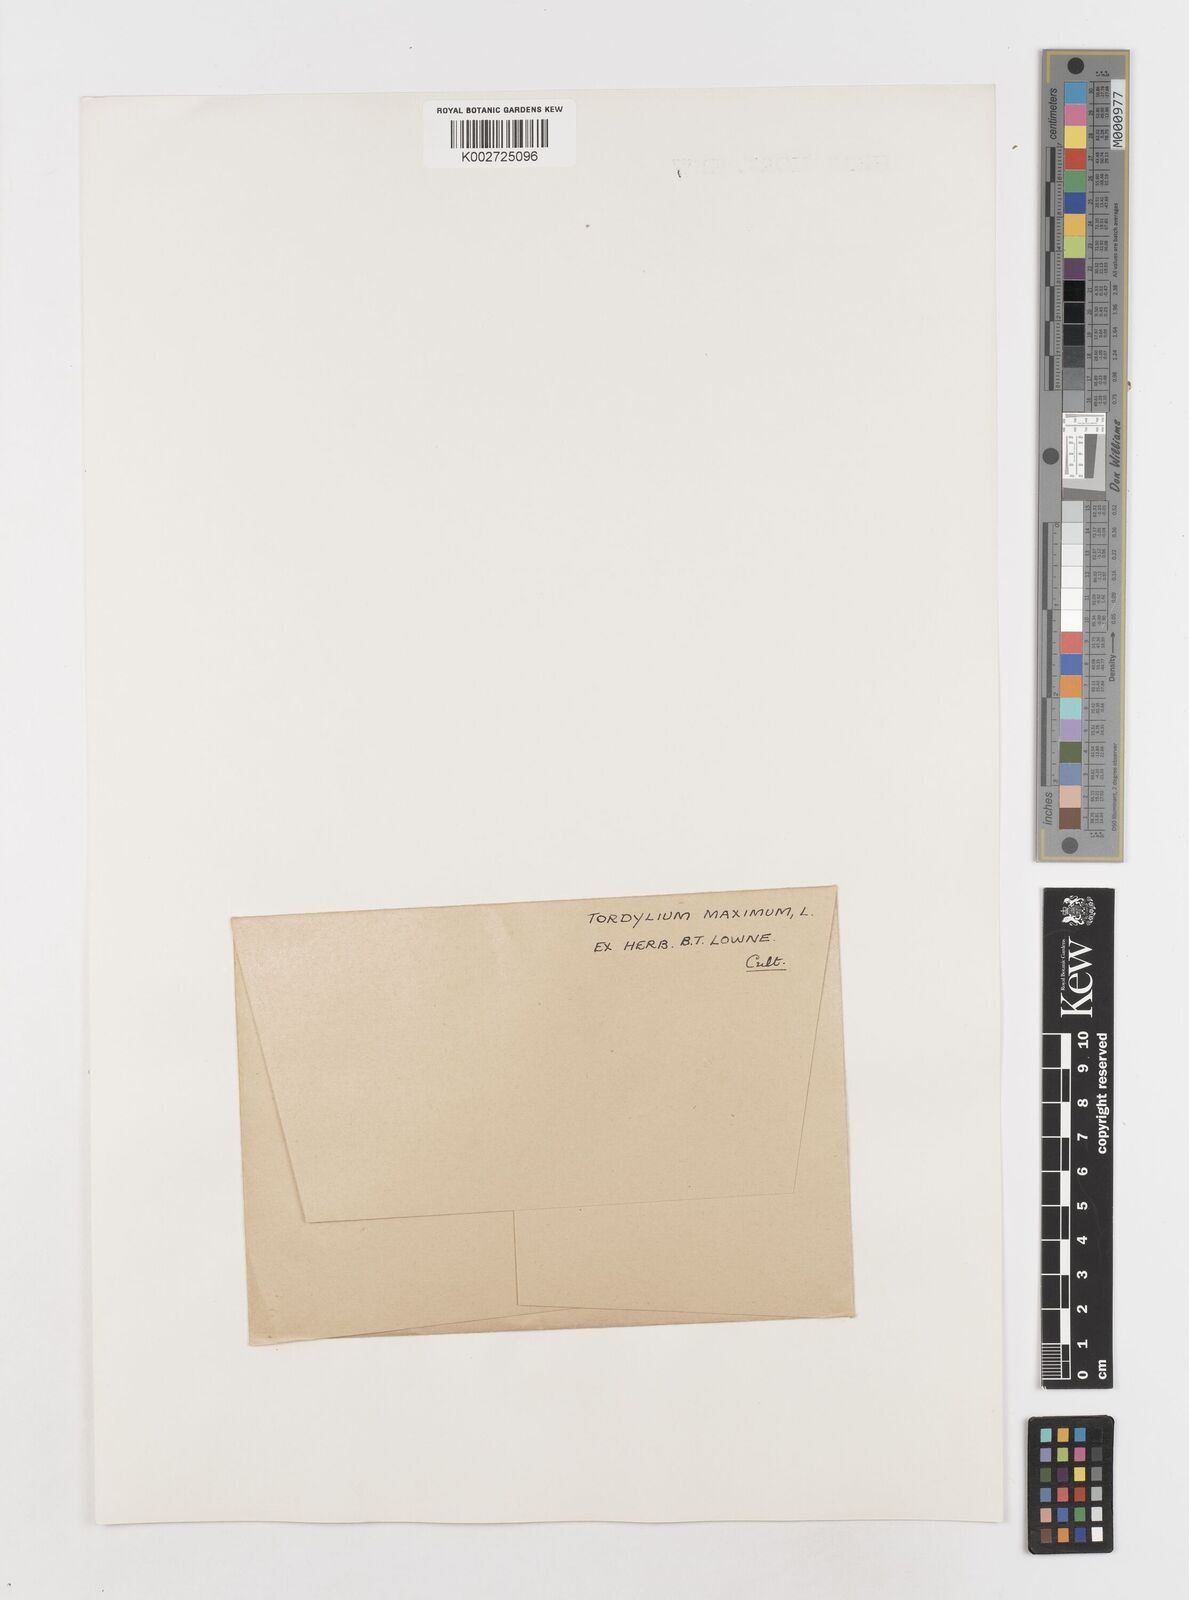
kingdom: Plantae
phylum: Tracheophyta
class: Magnoliopsida
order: Apiales
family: Apiaceae
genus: Tordylium
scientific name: Tordylium maximum
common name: Hartwort
